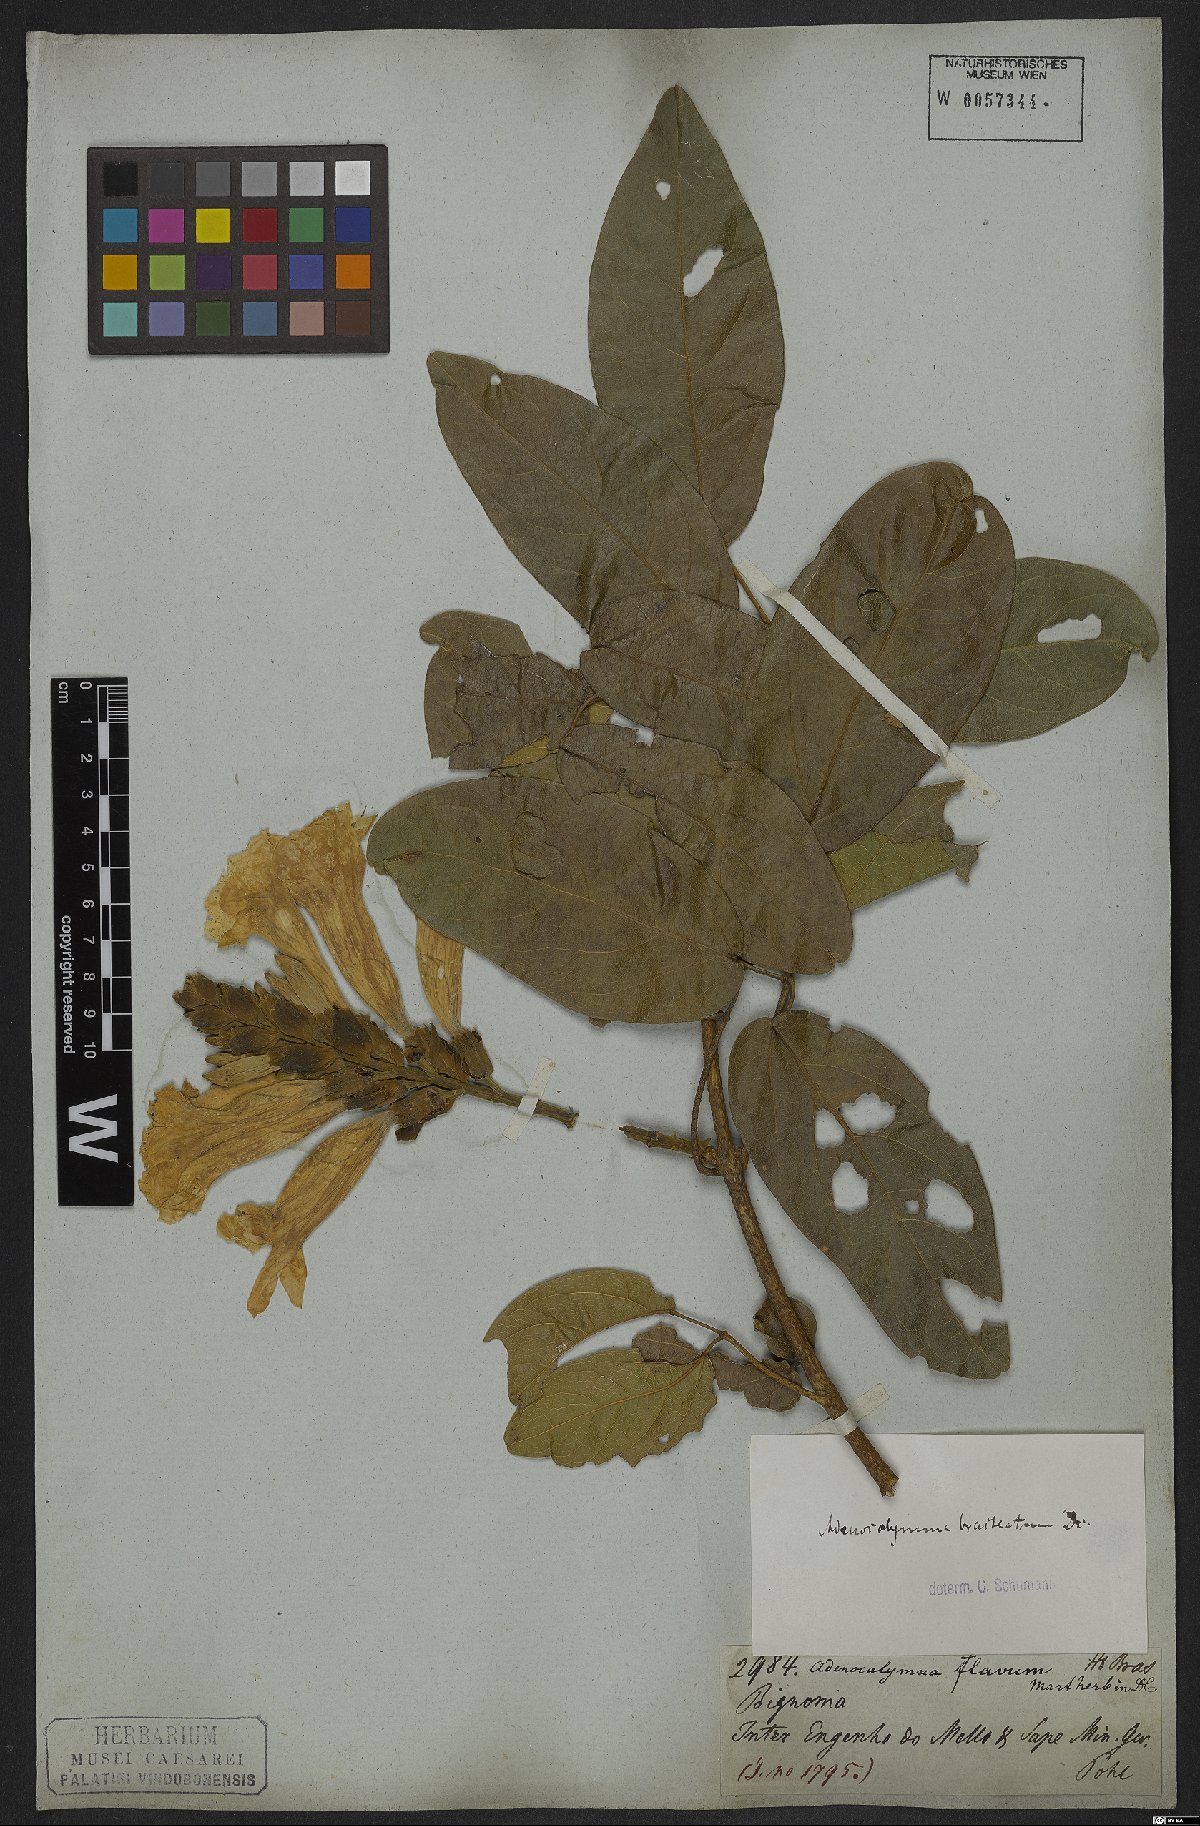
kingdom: Plantae
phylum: Tracheophyta
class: Magnoliopsida
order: Lamiales
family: Bignoniaceae
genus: Adenocalymma
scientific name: Adenocalymma bracteatum
